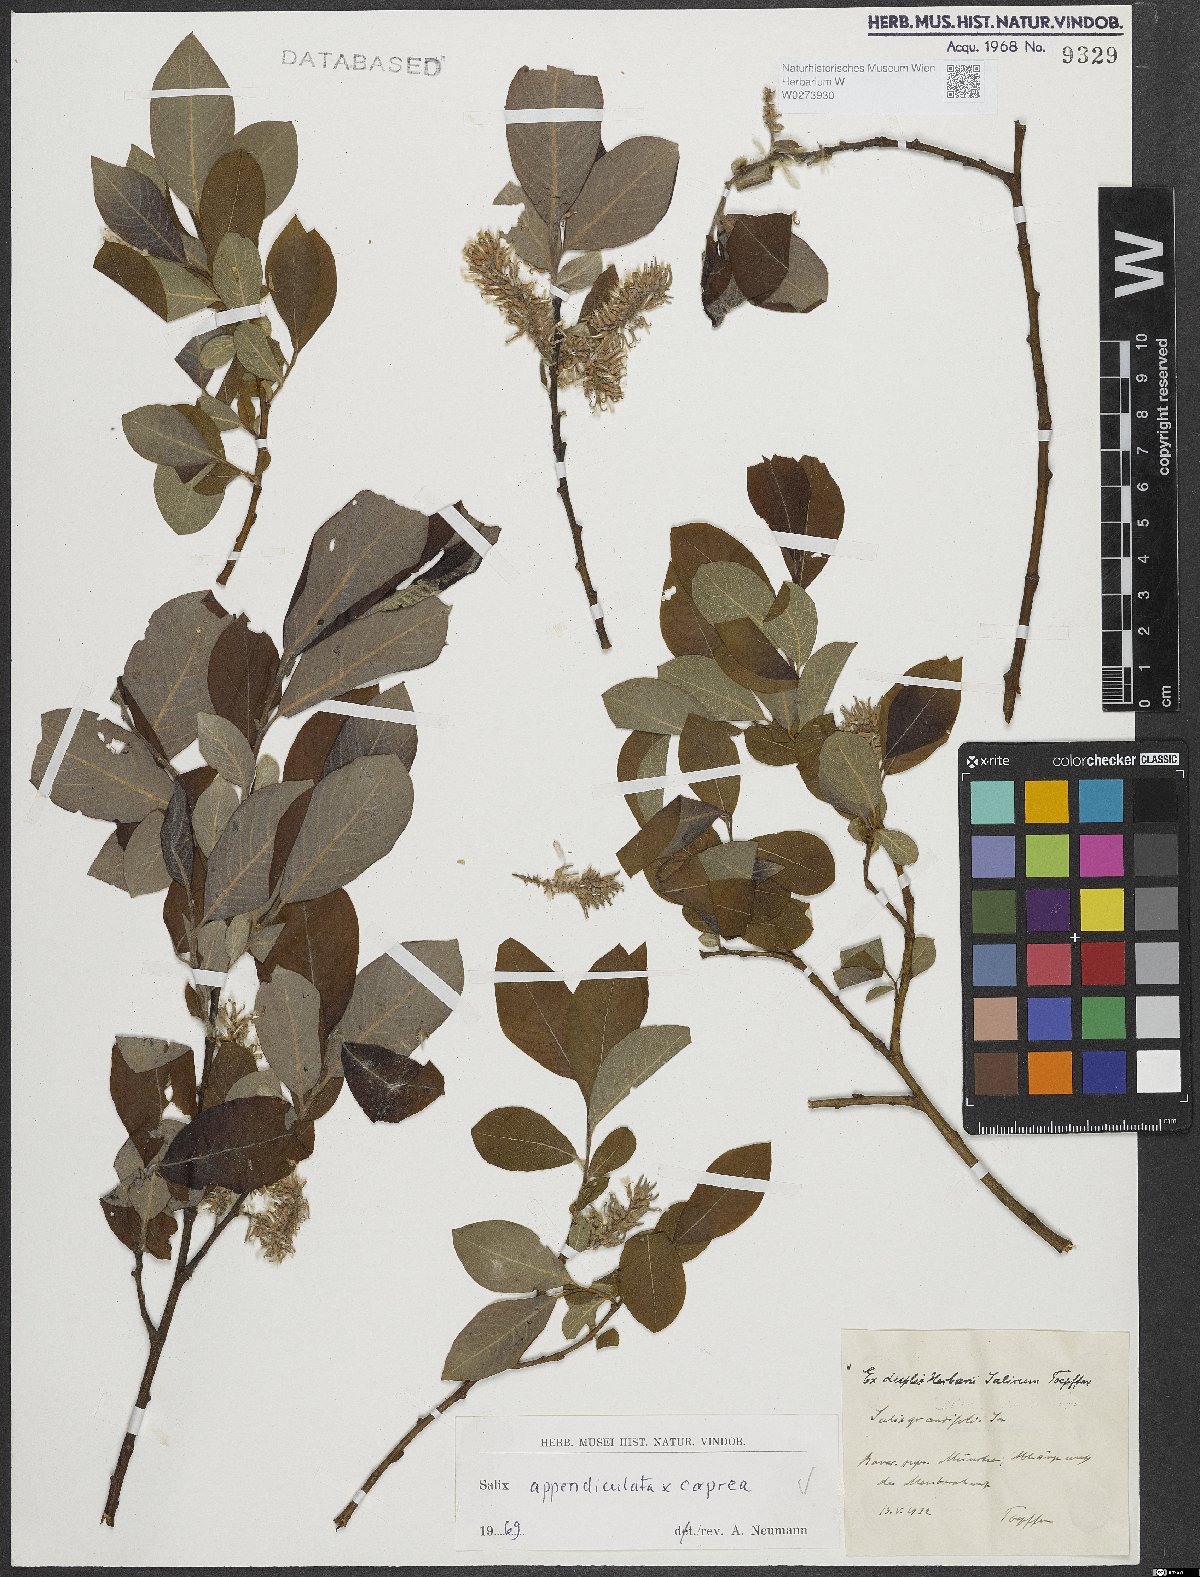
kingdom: Plantae
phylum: Tracheophyta
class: Magnoliopsida
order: Malpighiales
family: Salicaceae
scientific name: Salicaceae
